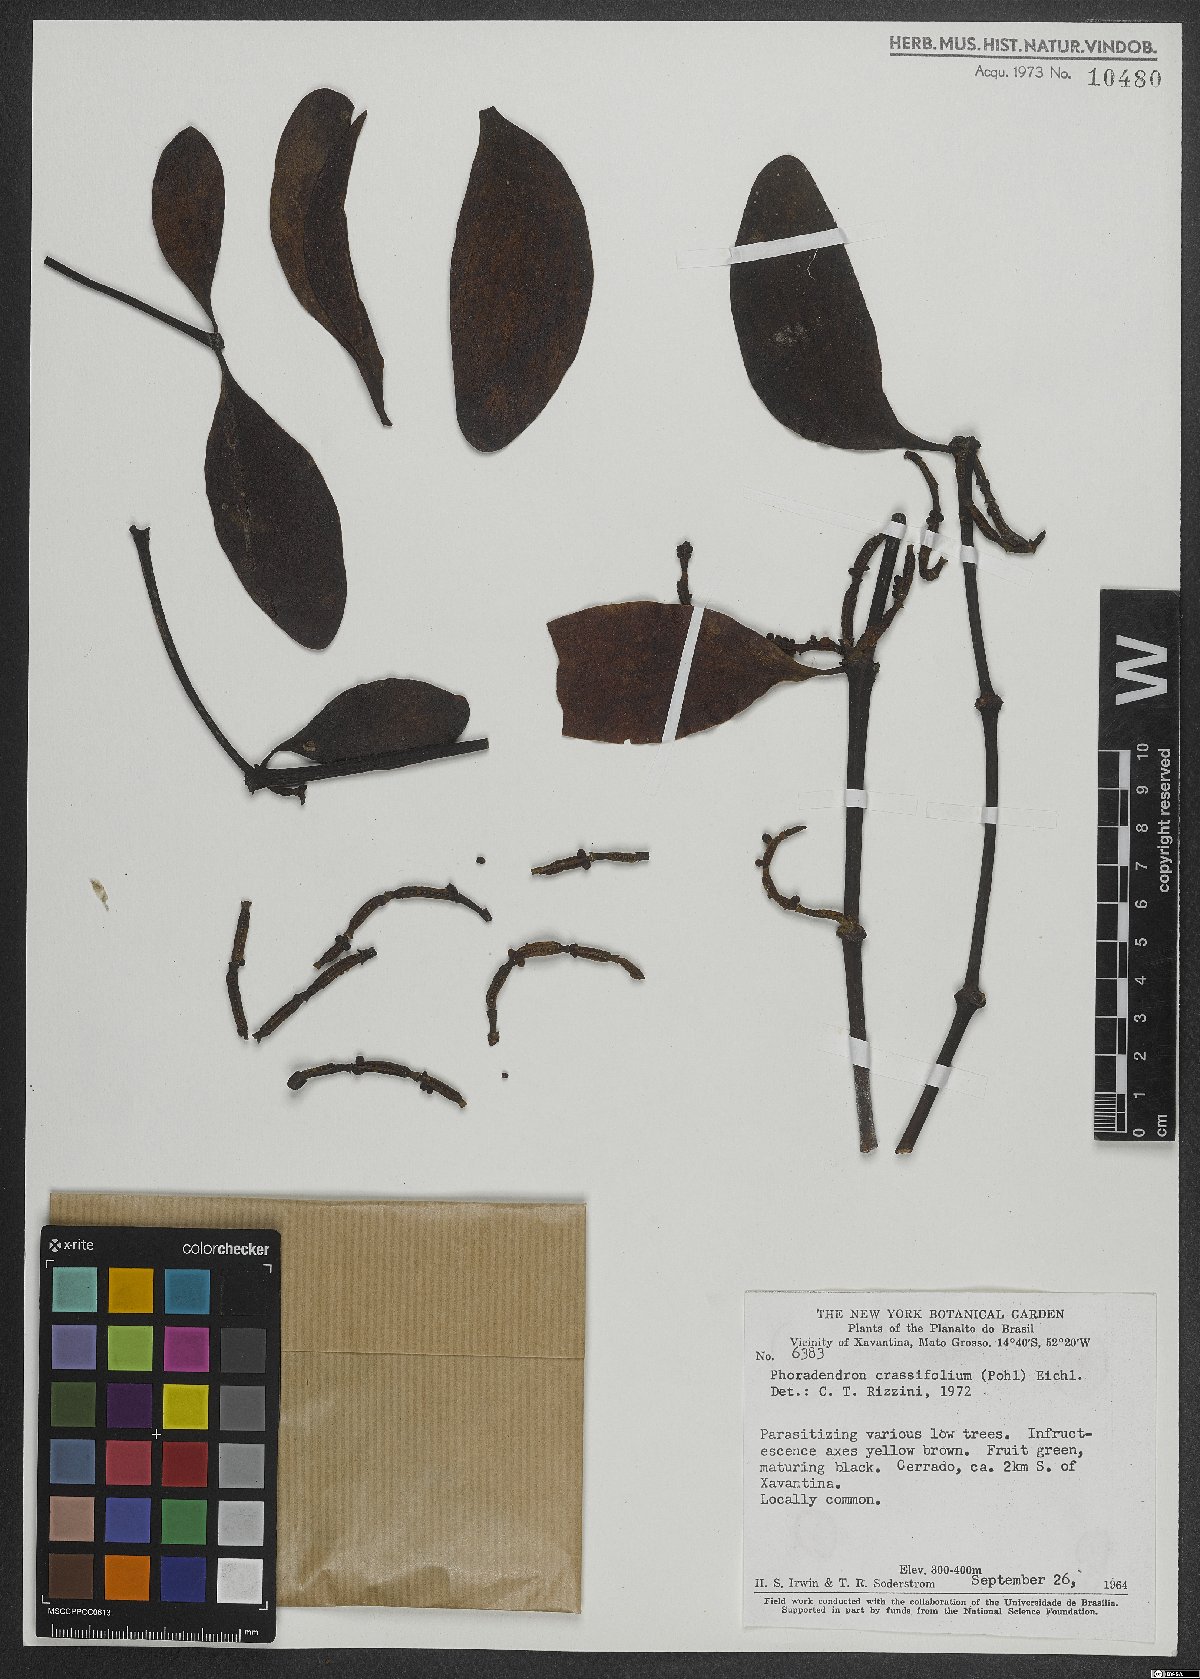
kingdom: Plantae
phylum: Tracheophyta
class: Magnoliopsida
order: Santalales
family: Viscaceae
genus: Phoradendron
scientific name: Phoradendron crassifolium
